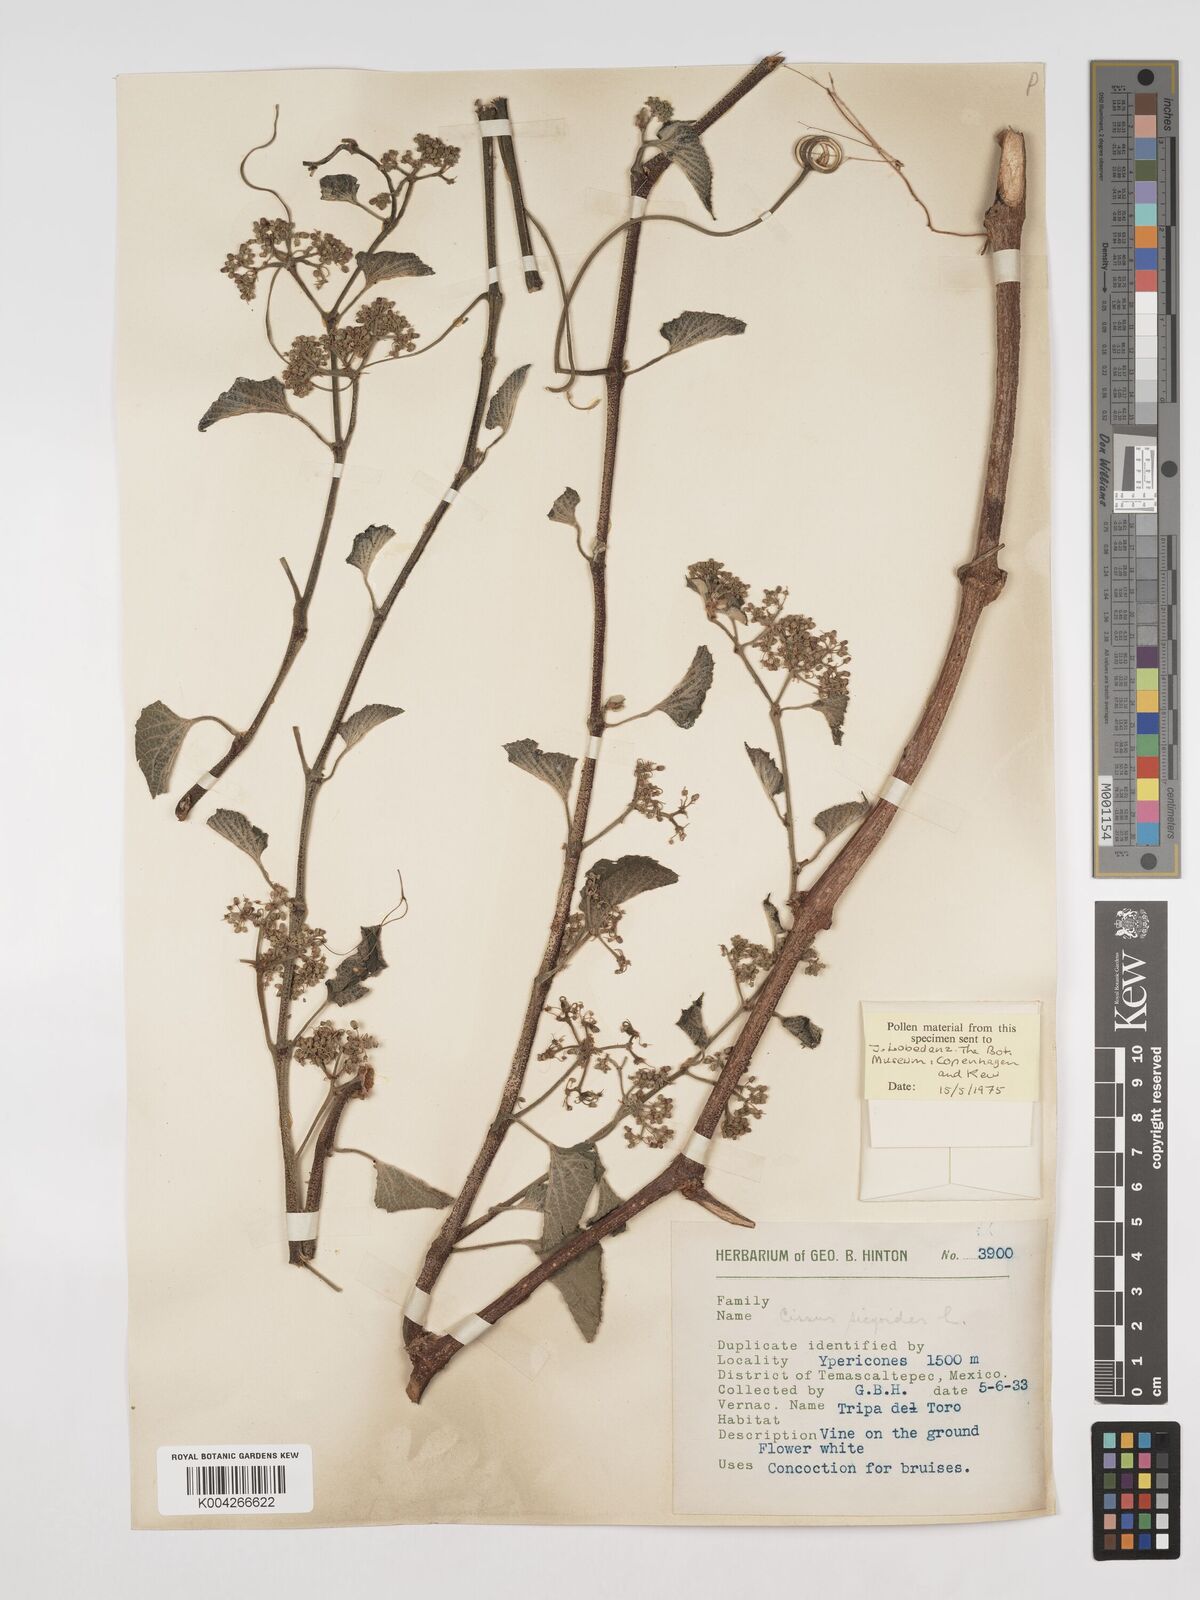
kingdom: Plantae
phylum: Tracheophyta
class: Magnoliopsida
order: Vitales
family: Vitaceae
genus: Cissus
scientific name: Cissus
